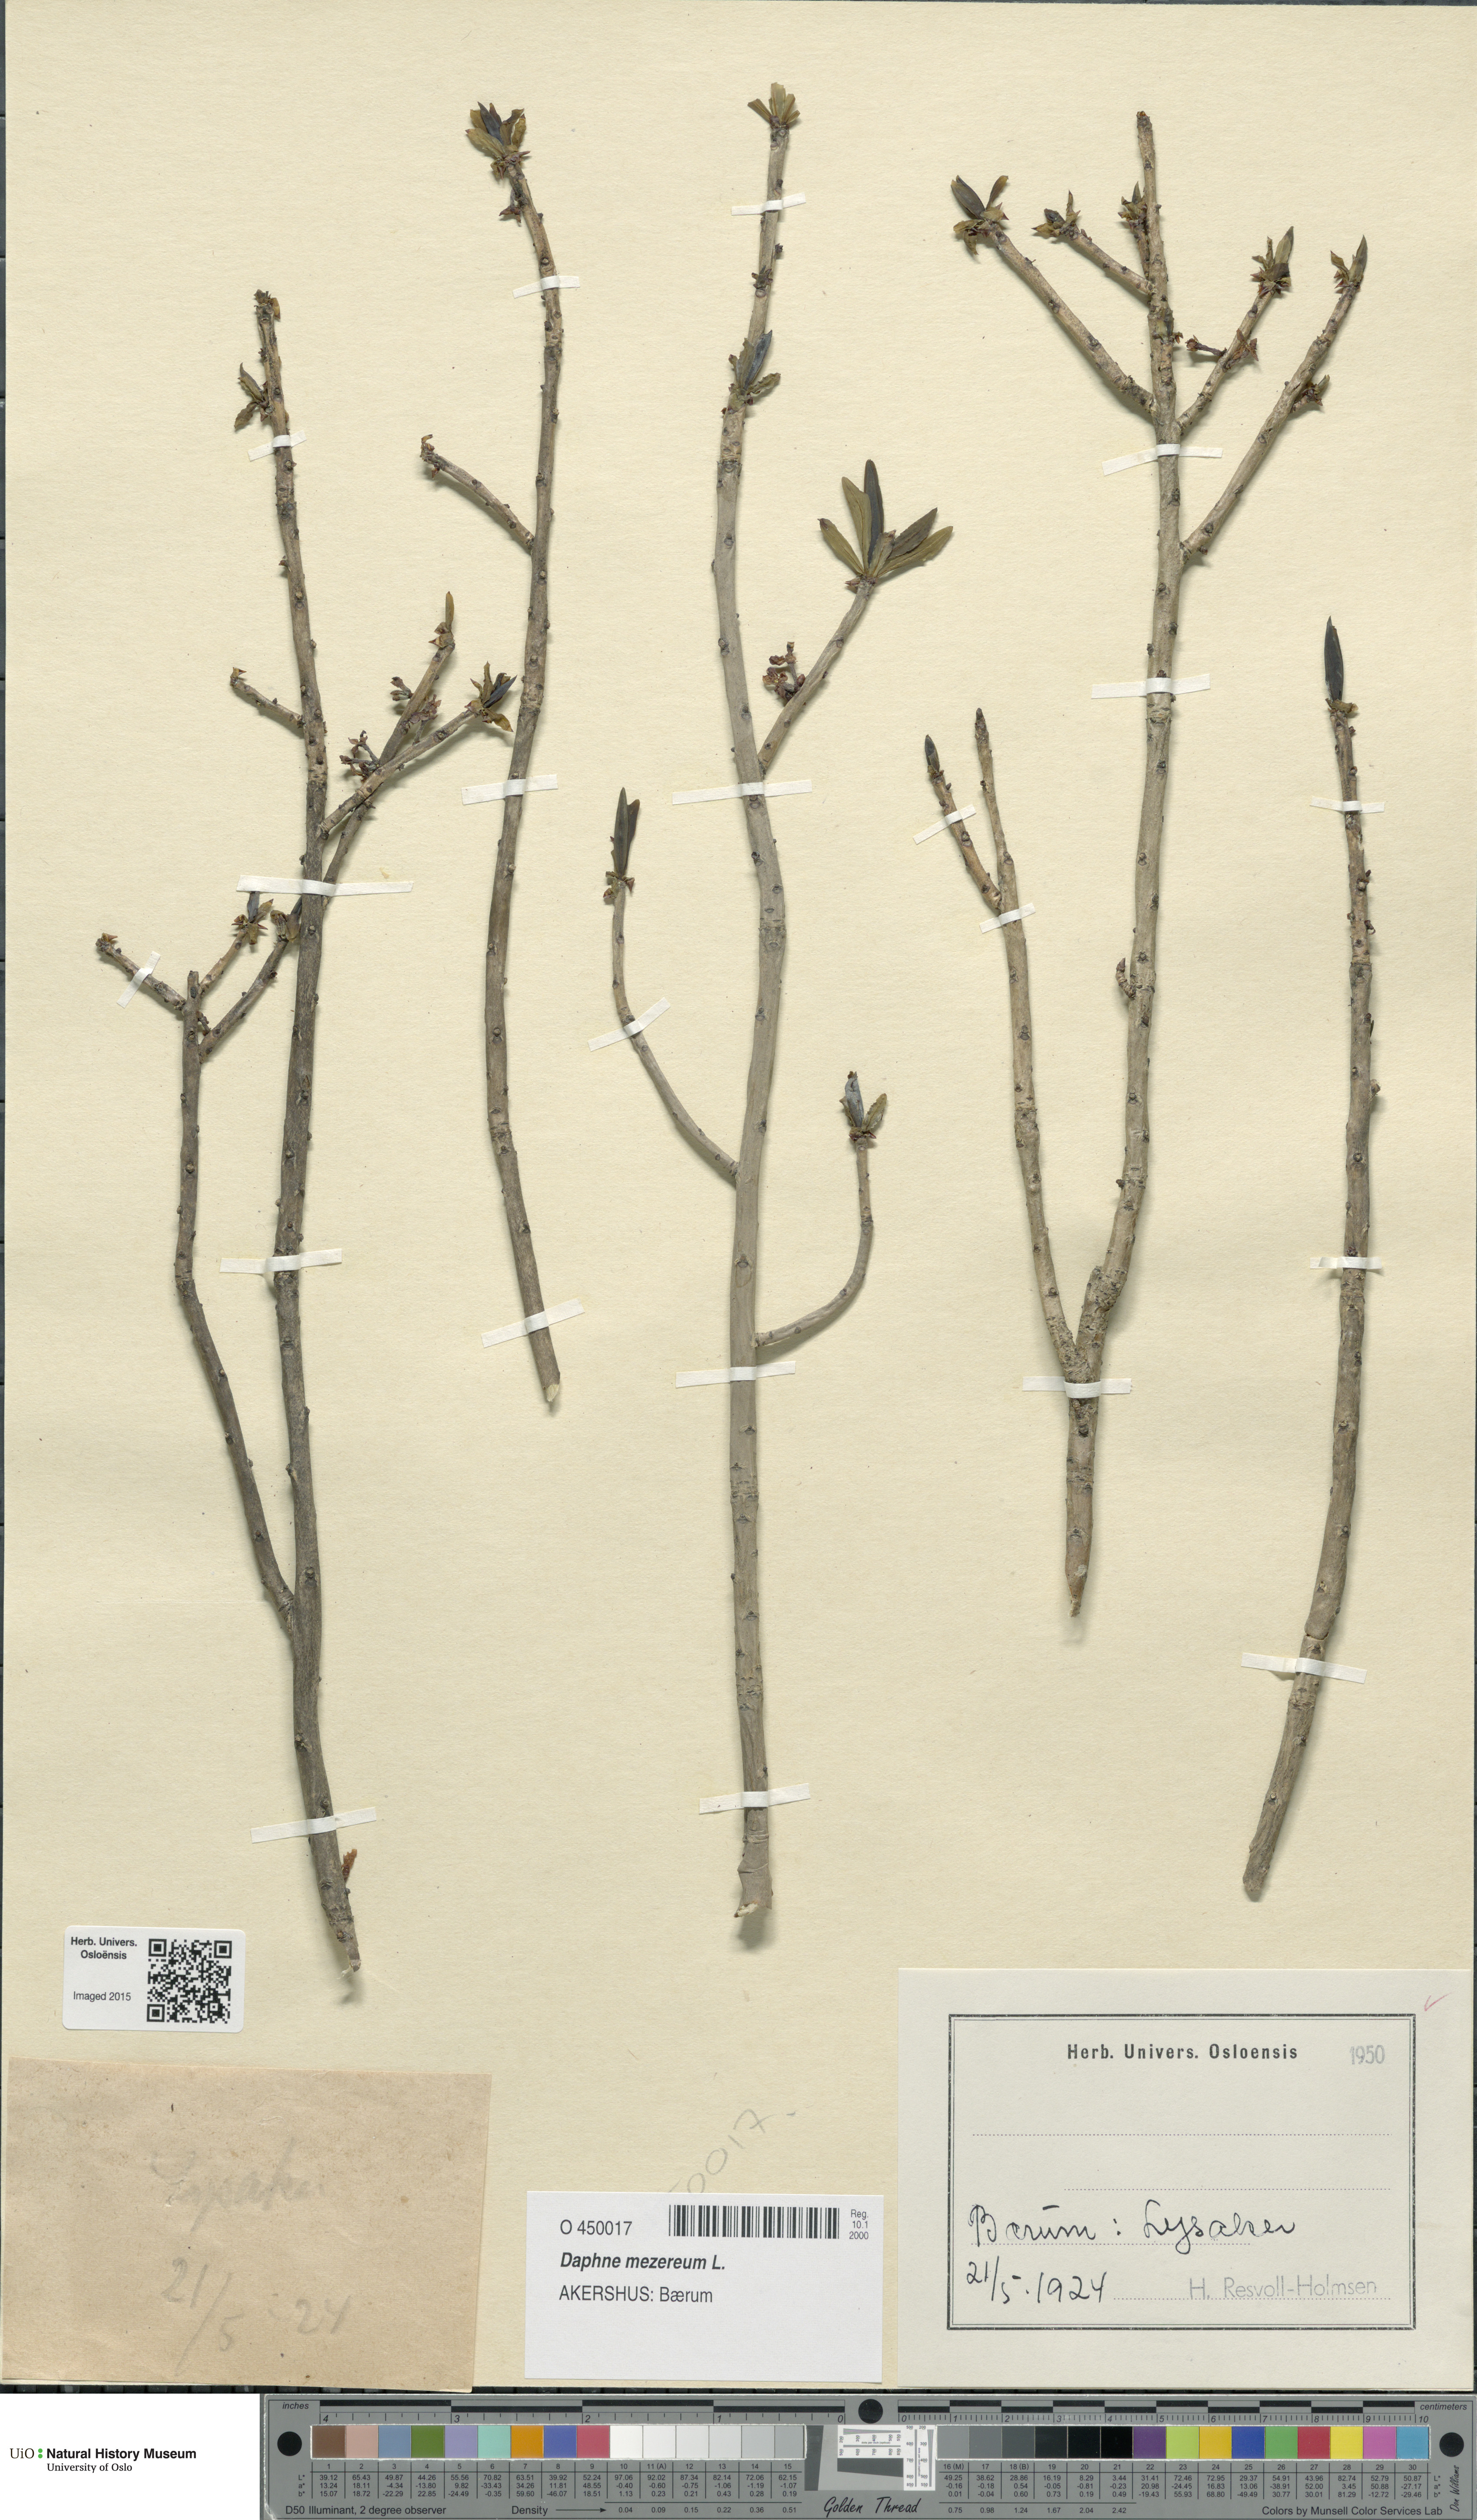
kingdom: Plantae
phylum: Tracheophyta
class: Magnoliopsida
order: Malvales
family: Thymelaeaceae
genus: Daphne
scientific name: Daphne mezereum
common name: Mezereon
